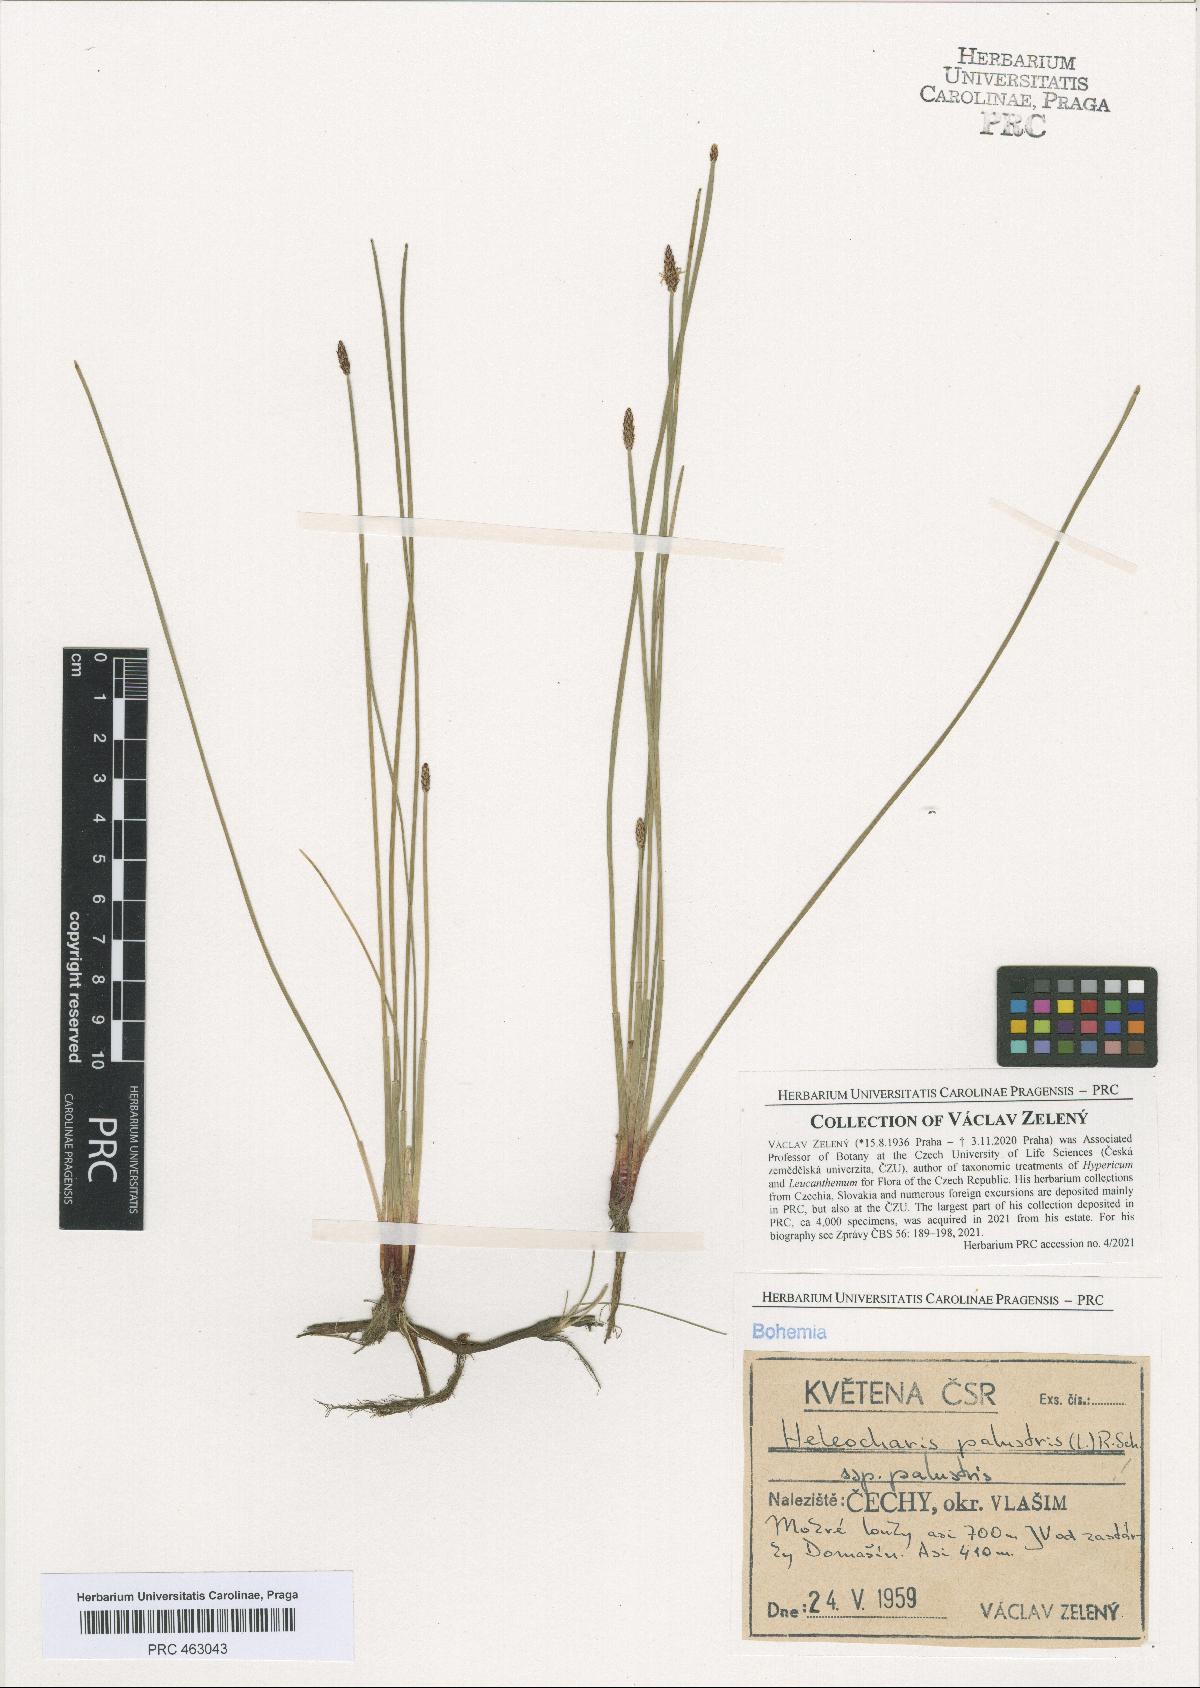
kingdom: Plantae
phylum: Tracheophyta
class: Liliopsida
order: Poales
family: Cyperaceae
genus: Eleocharis
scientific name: Eleocharis palustris
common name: Common spike-rush
